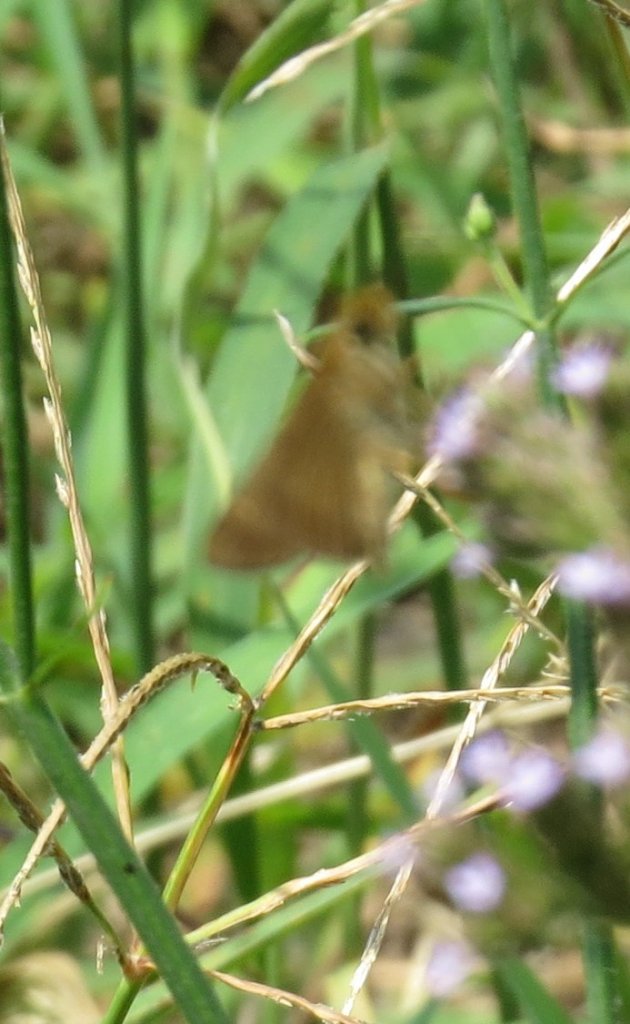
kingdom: Animalia
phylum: Arthropoda
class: Insecta
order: Lepidoptera
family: Hesperiidae
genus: Panoquina
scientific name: Panoquina ocola
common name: Ocola Skipper
